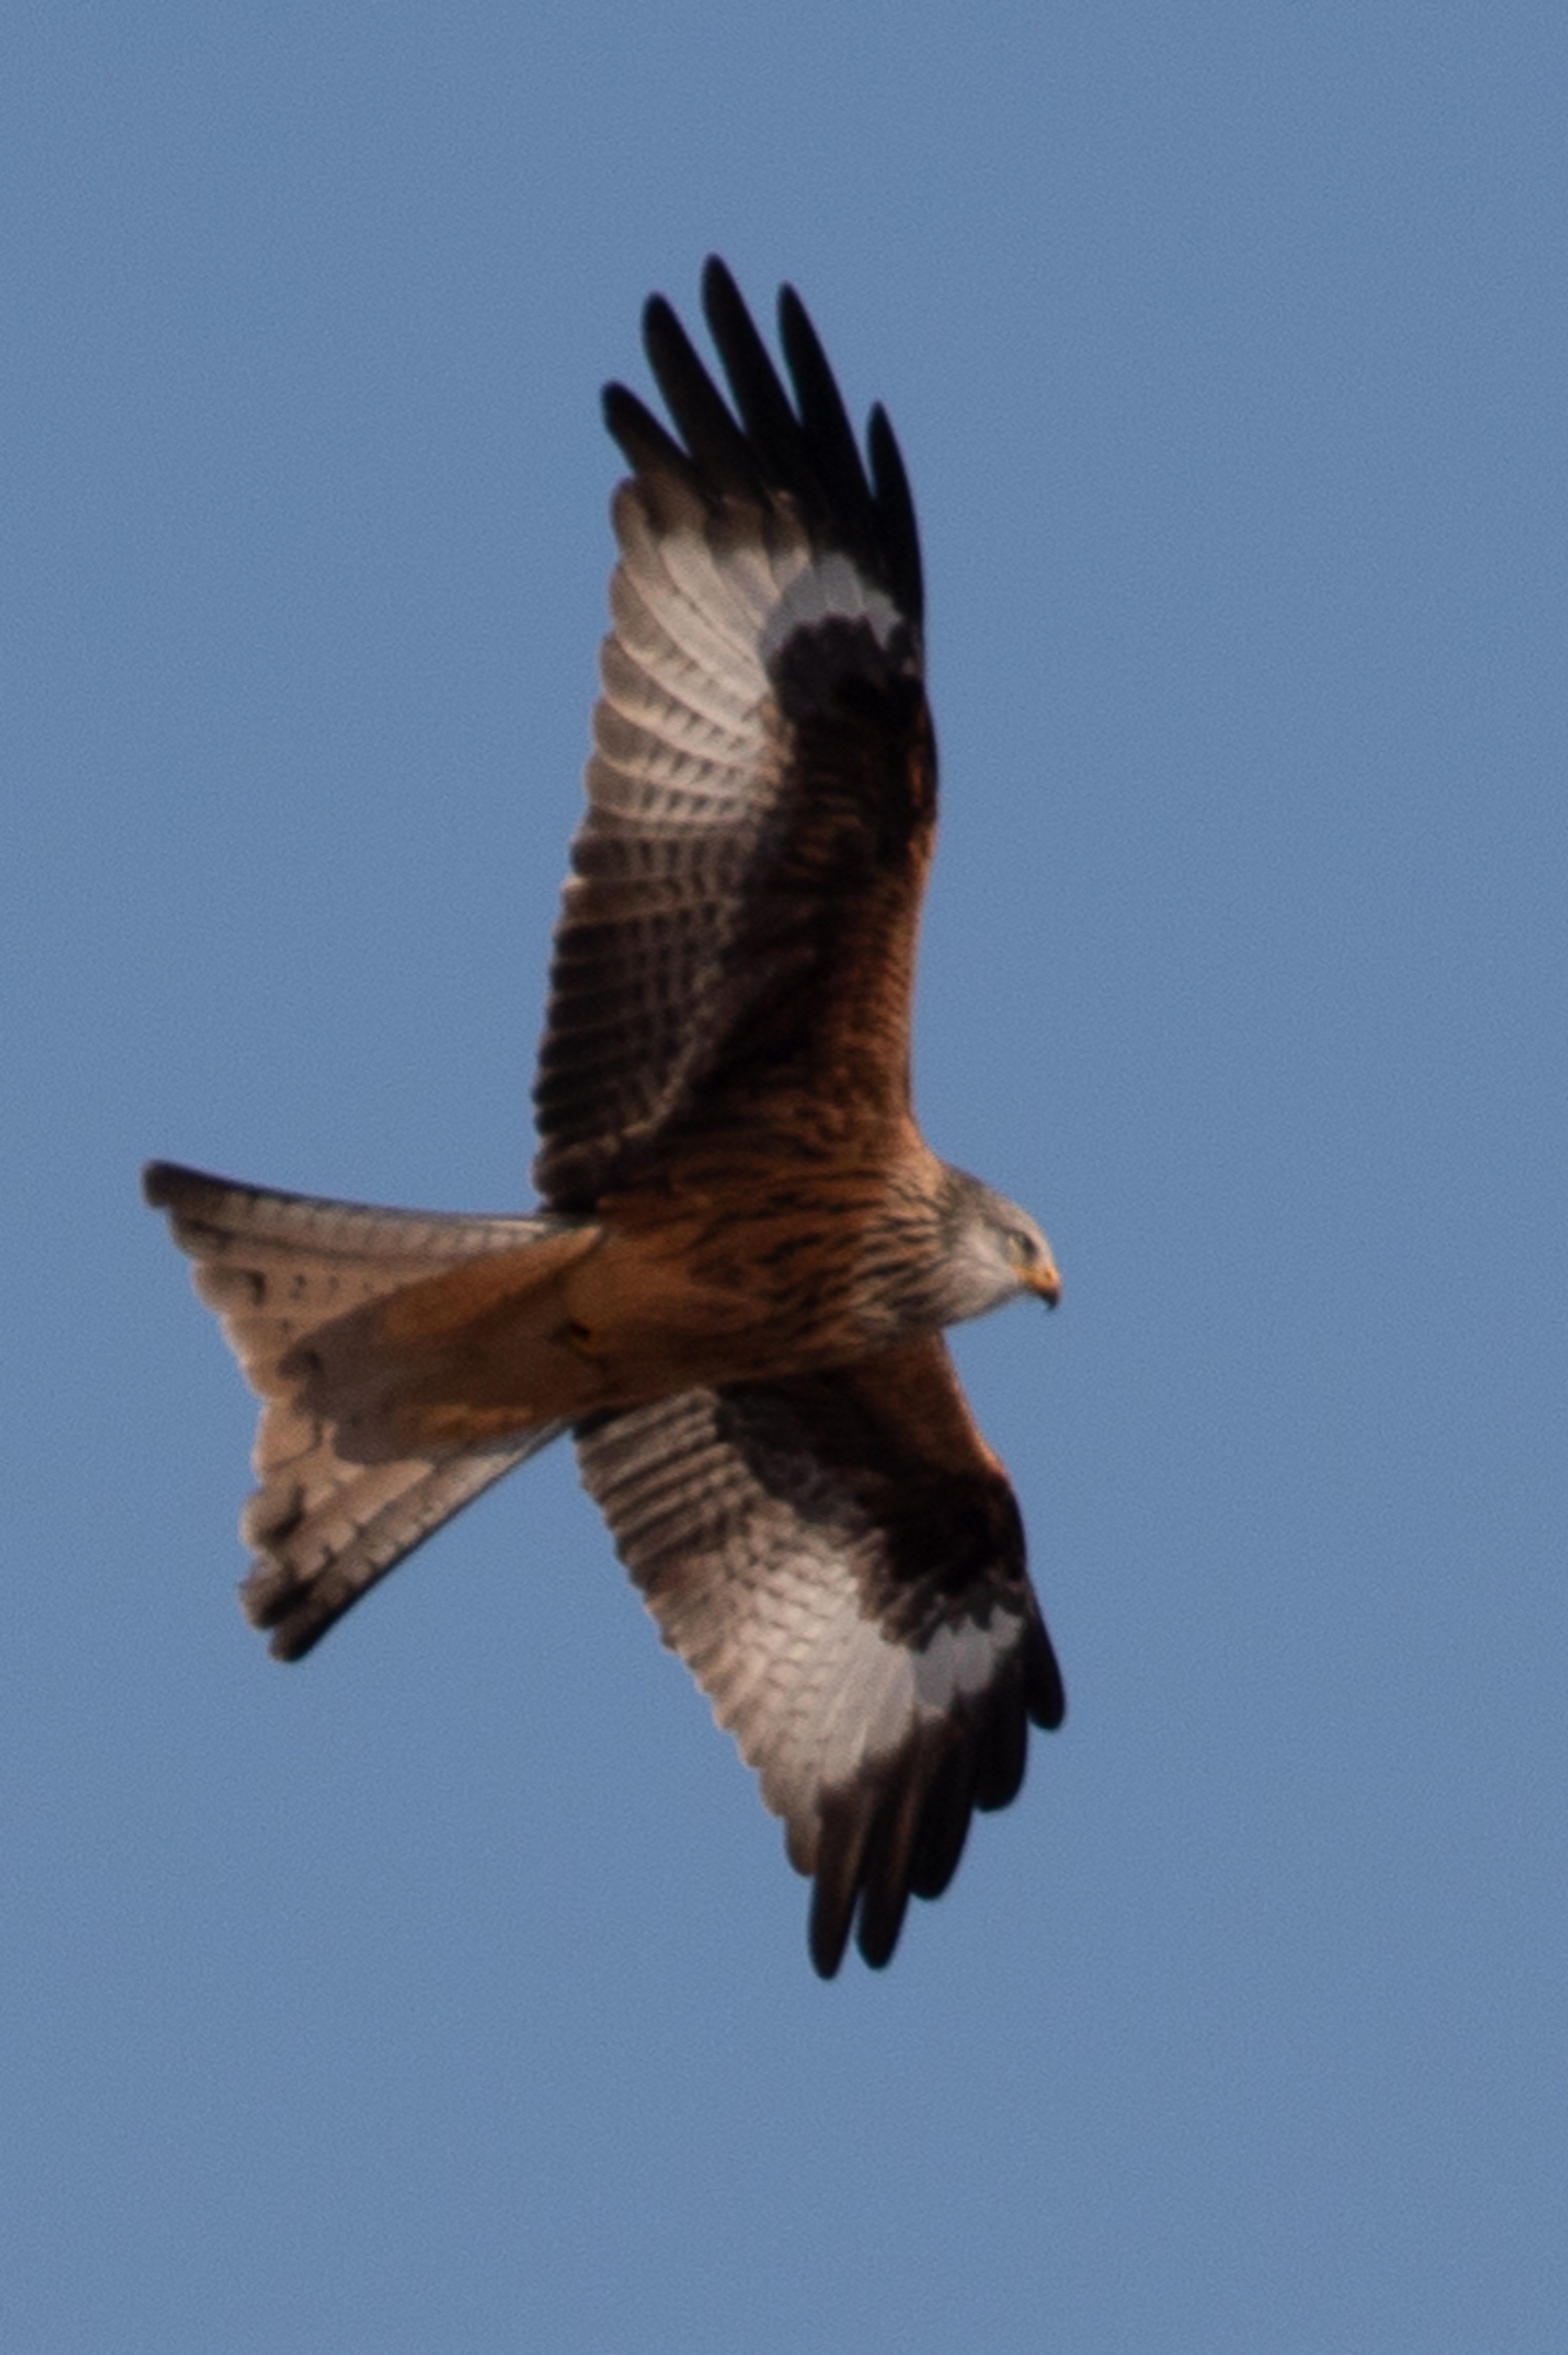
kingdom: Animalia
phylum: Chordata
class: Aves
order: Accipitriformes
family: Accipitridae
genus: Milvus
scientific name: Milvus milvus
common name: Rød glente
